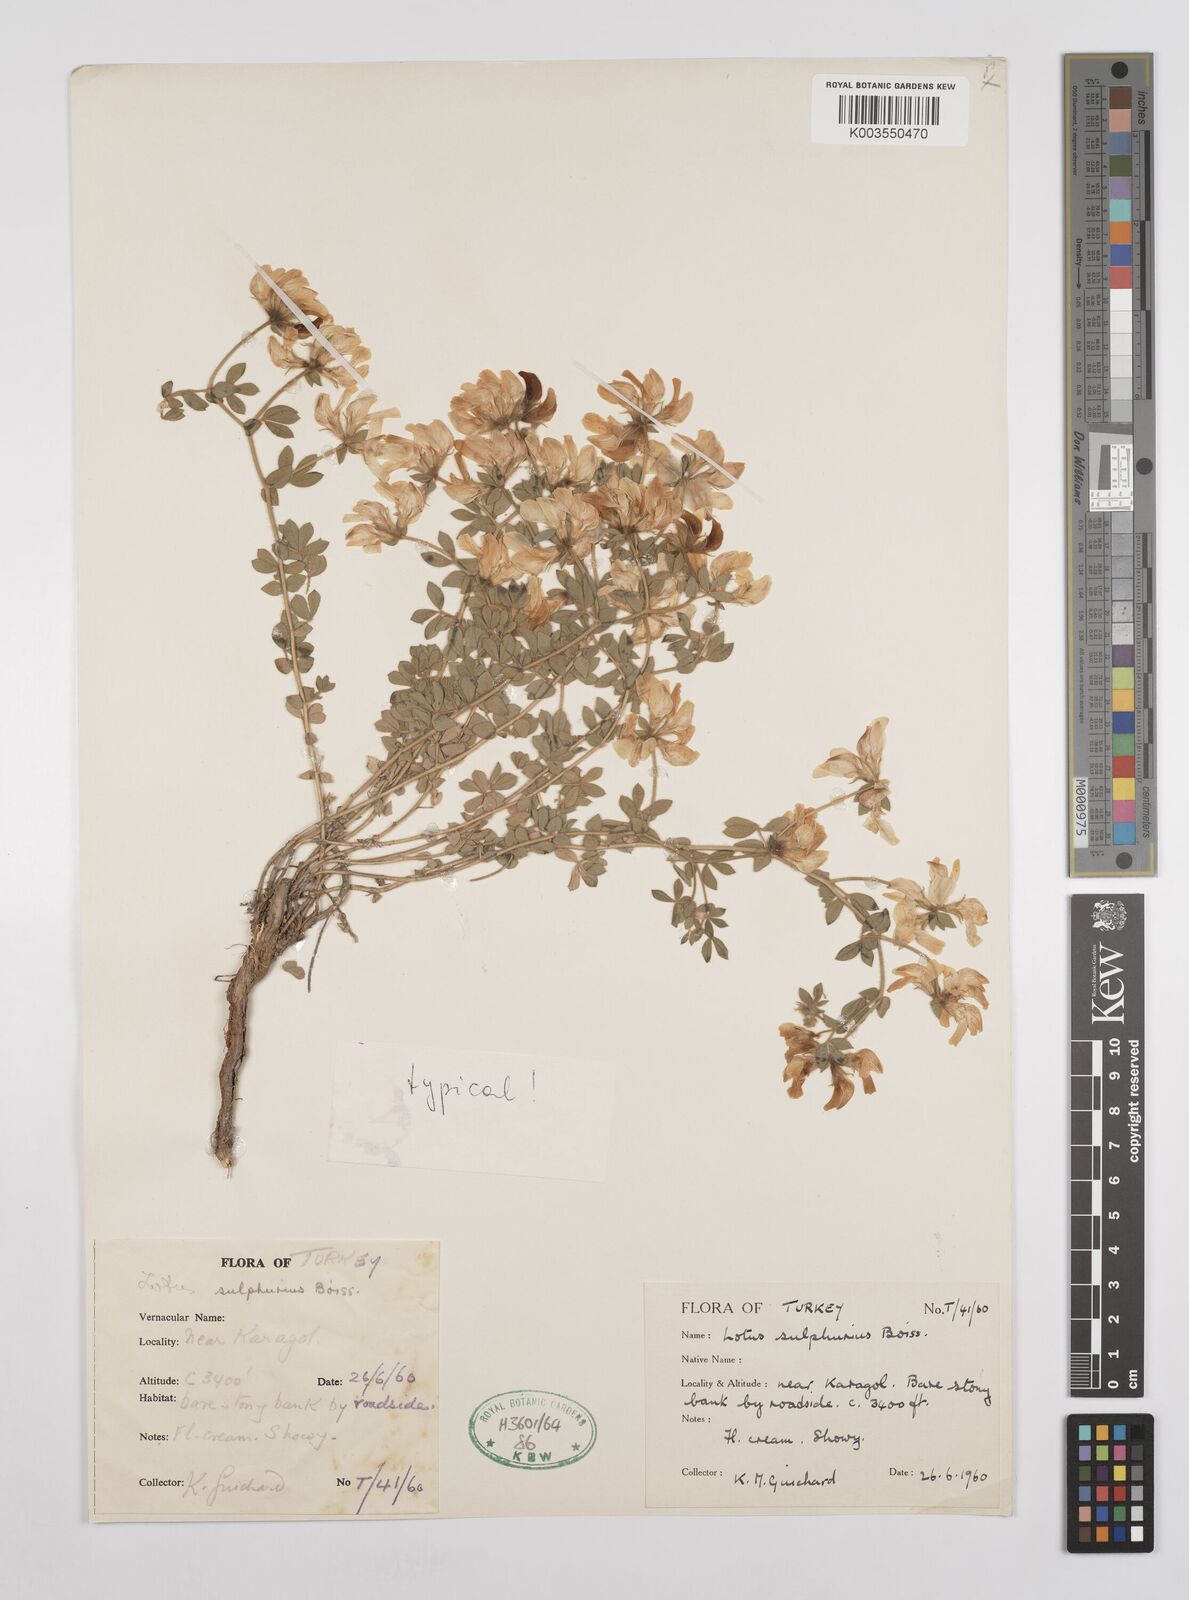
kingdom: Plantae
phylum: Tracheophyta
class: Magnoliopsida
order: Fabales
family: Fabaceae
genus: Lotus
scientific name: Lotus aegaeus
